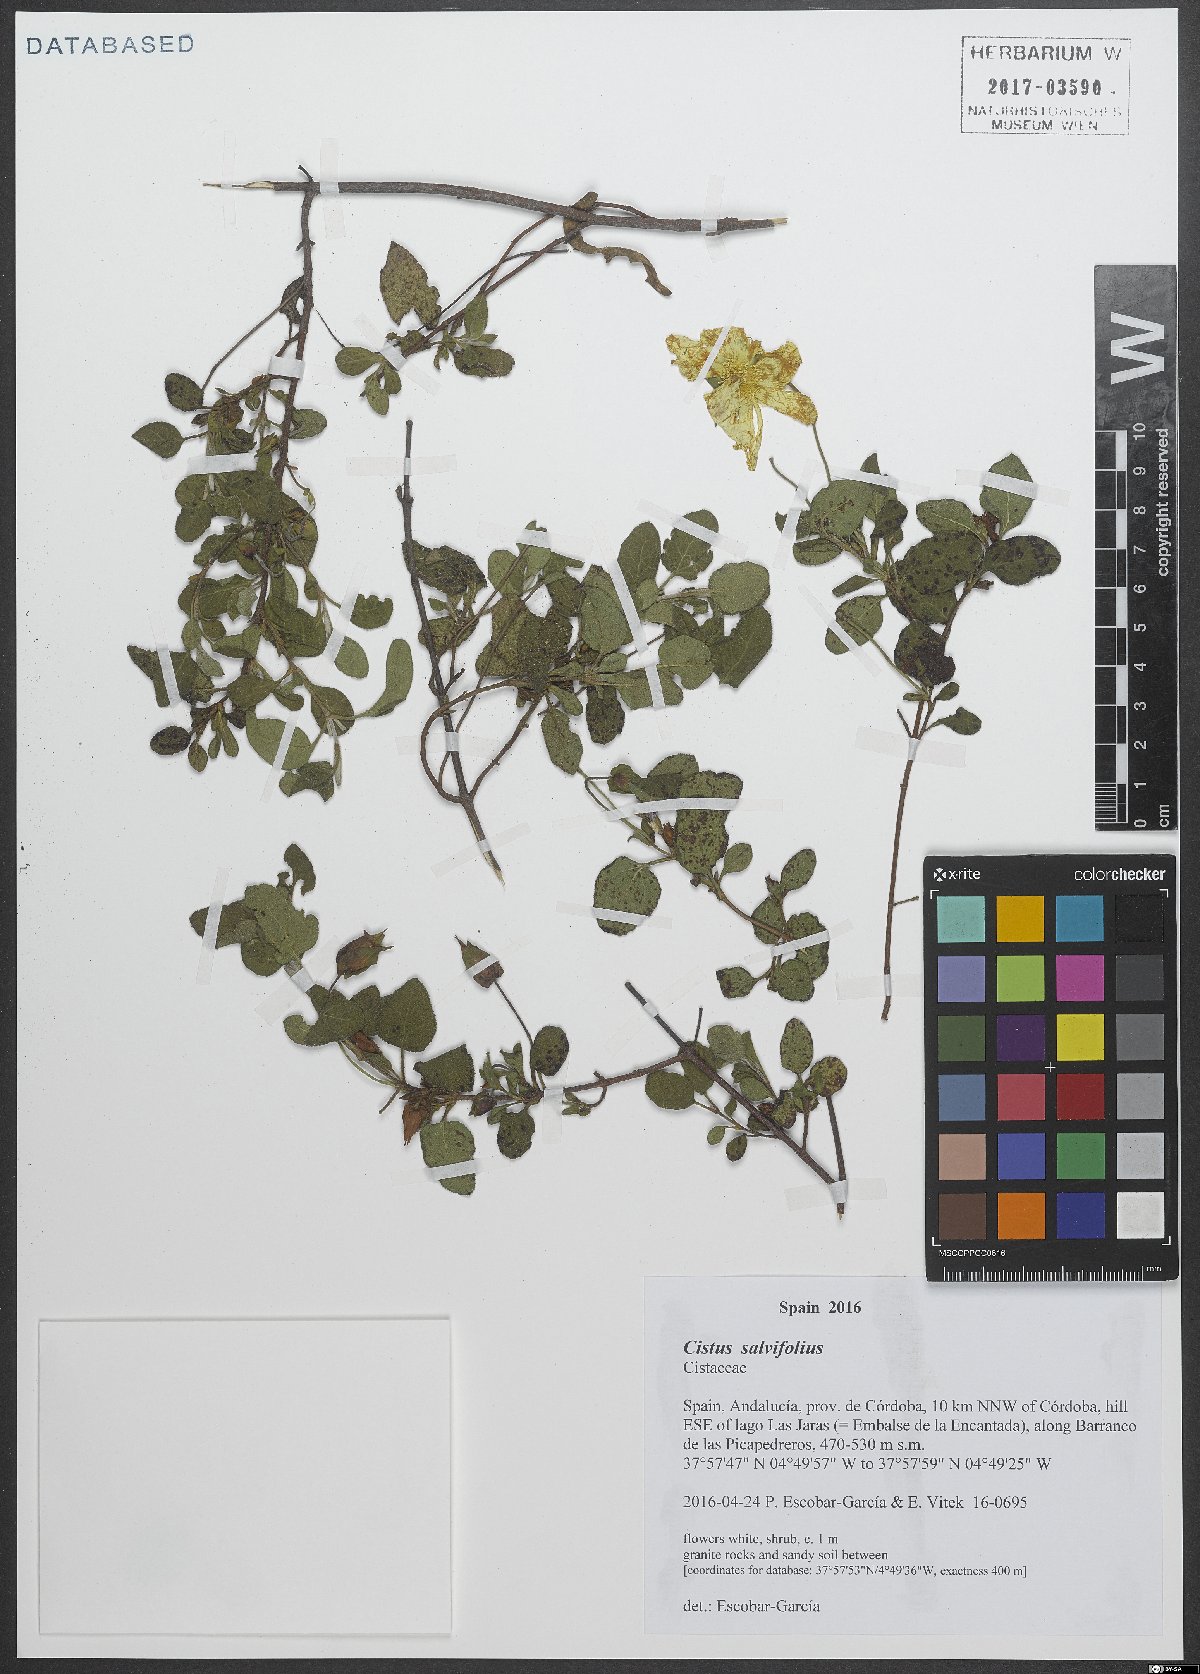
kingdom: Plantae
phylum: Tracheophyta
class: Magnoliopsida
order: Malvales
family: Cistaceae
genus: Cistus
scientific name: Cistus salviifolius
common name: Salvia cistus
